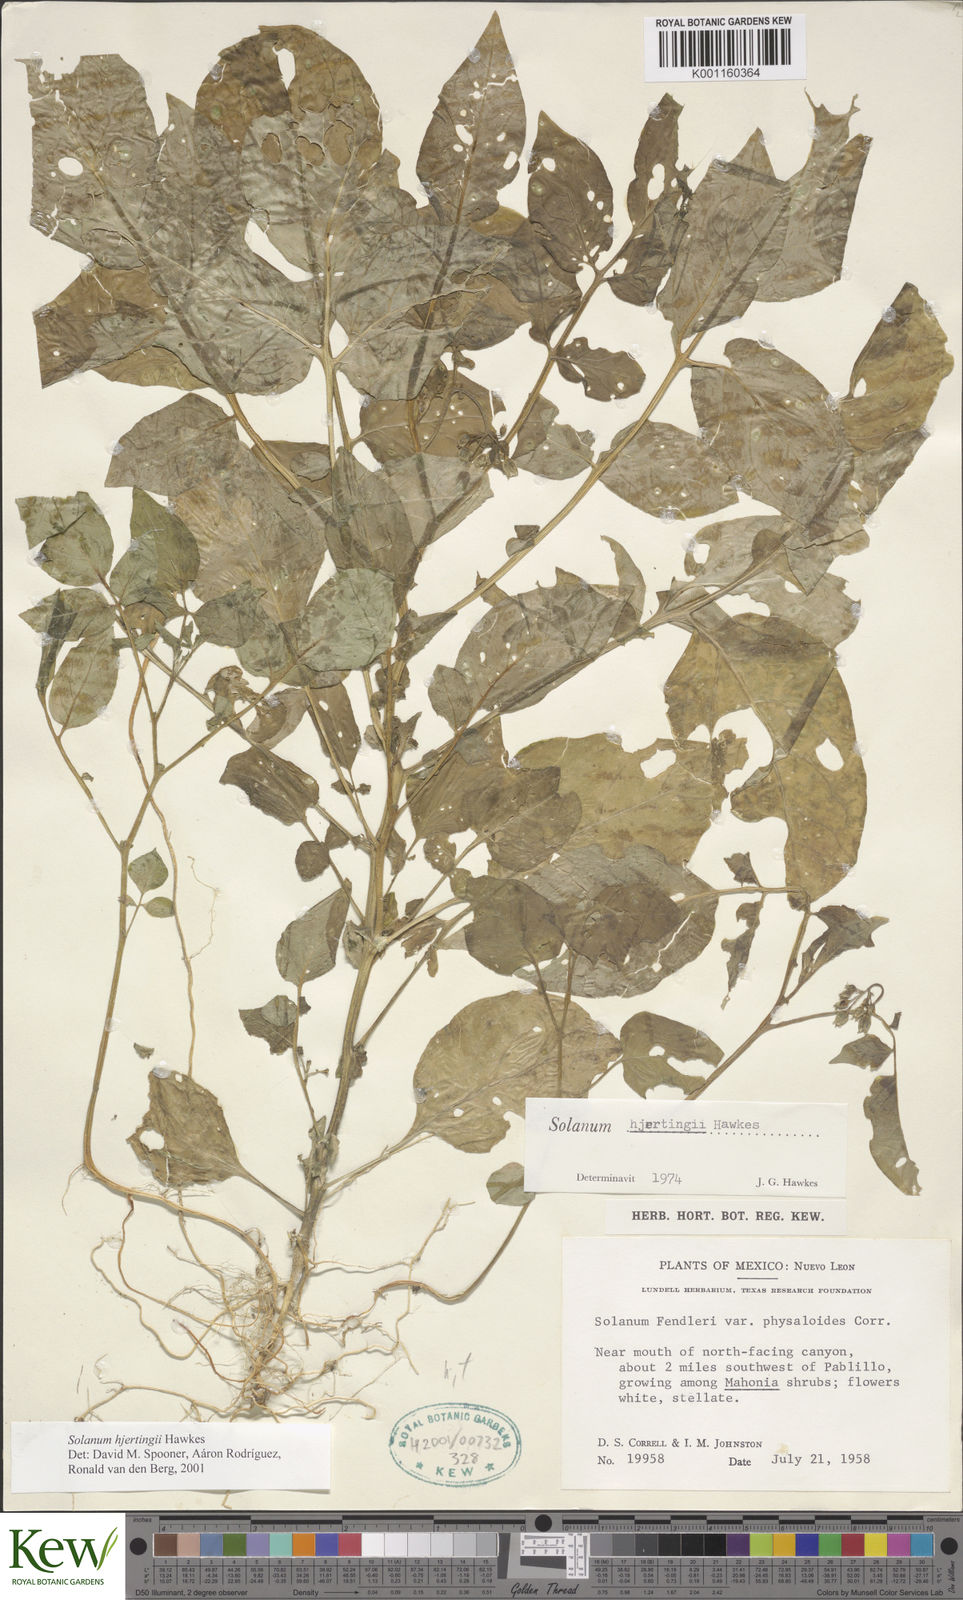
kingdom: Plantae
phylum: Tracheophyta
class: Magnoliopsida
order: Solanales
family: Solanaceae
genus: Solanum
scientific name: Solanum hjertingii
